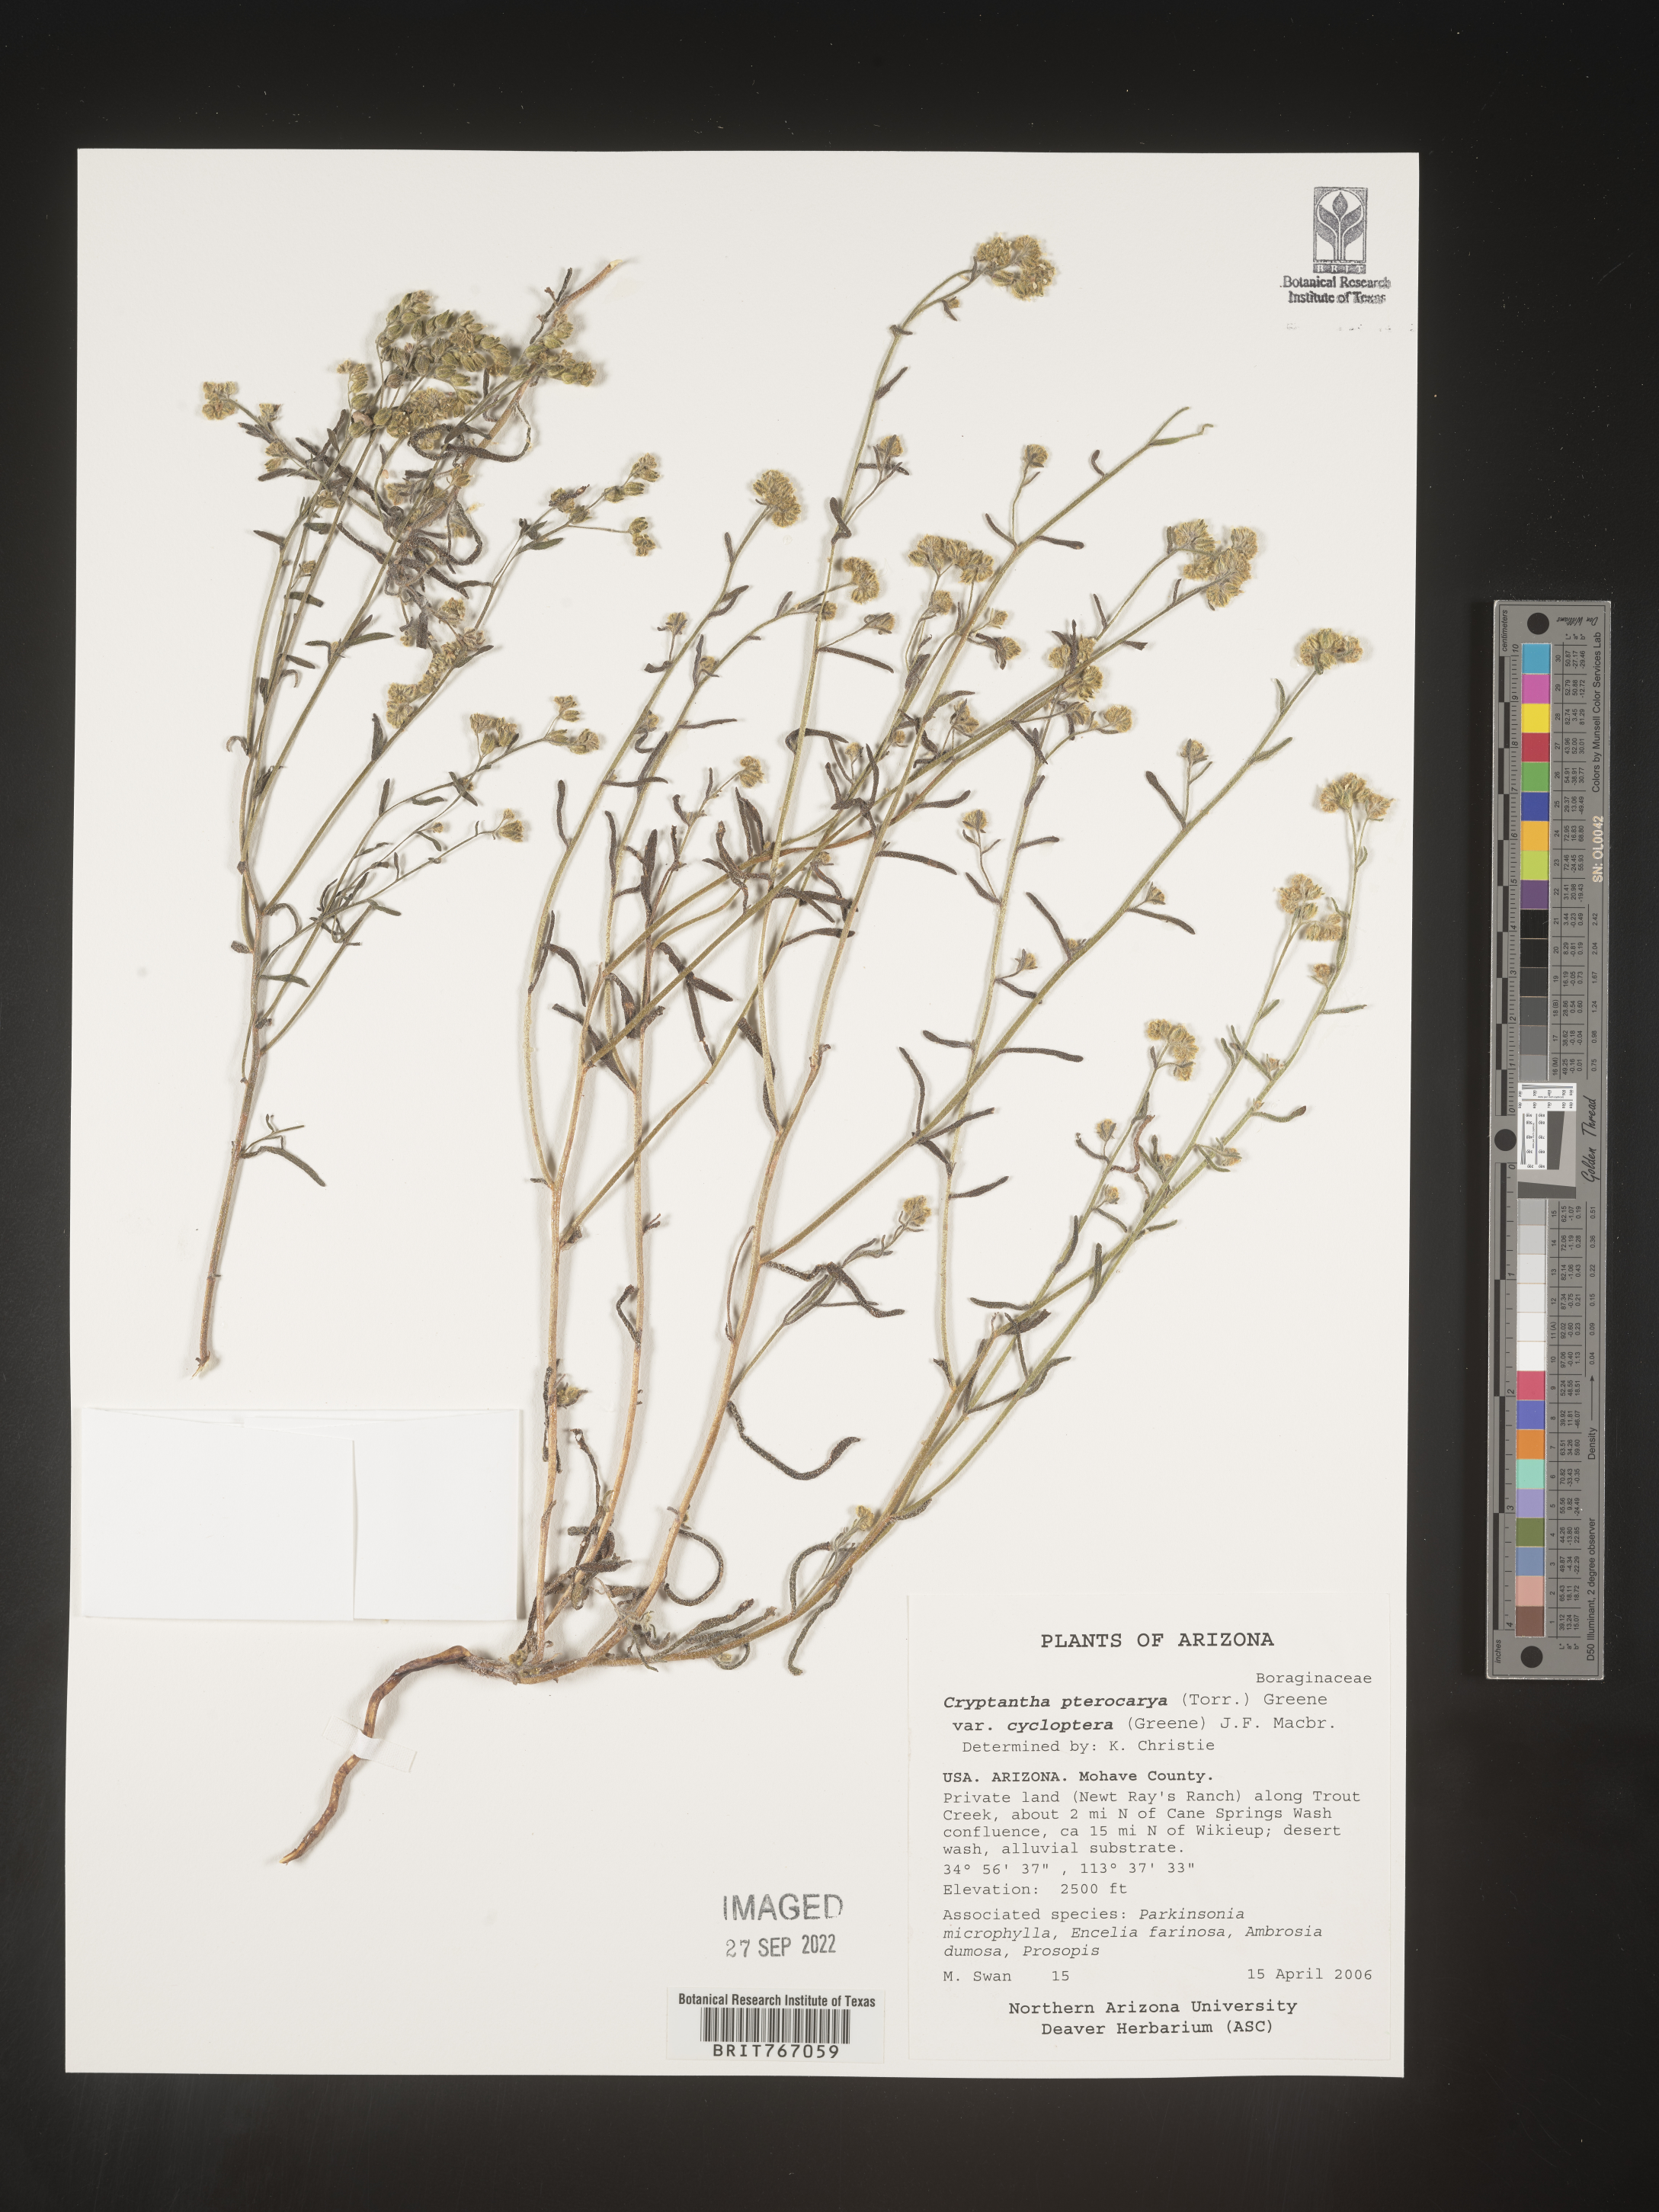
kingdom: Plantae
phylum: Tracheophyta
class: Magnoliopsida
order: Boraginales
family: Boraginaceae
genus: Cryptantha
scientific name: Cryptantha pterocarya
